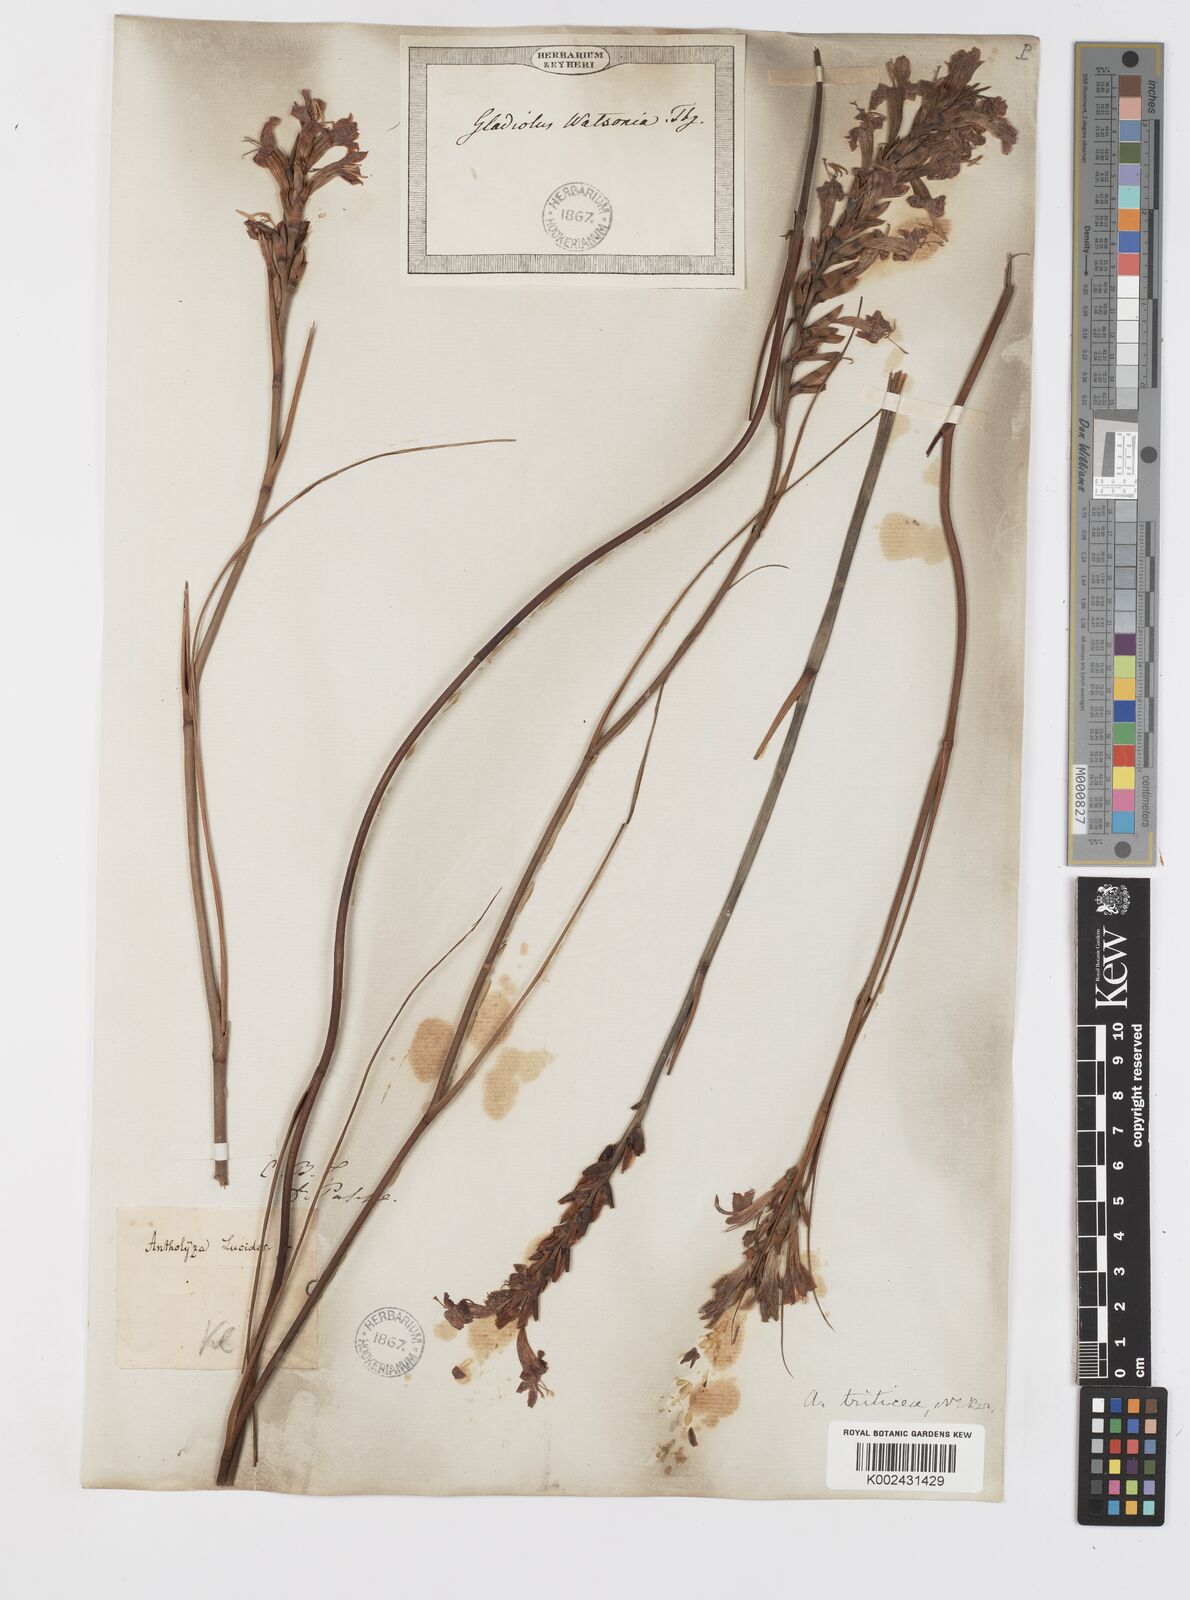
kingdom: Plantae
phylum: Tracheophyta
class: Liliopsida
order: Asparagales
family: Iridaceae
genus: Tritoniopsis
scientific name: Tritoniopsis triticea
